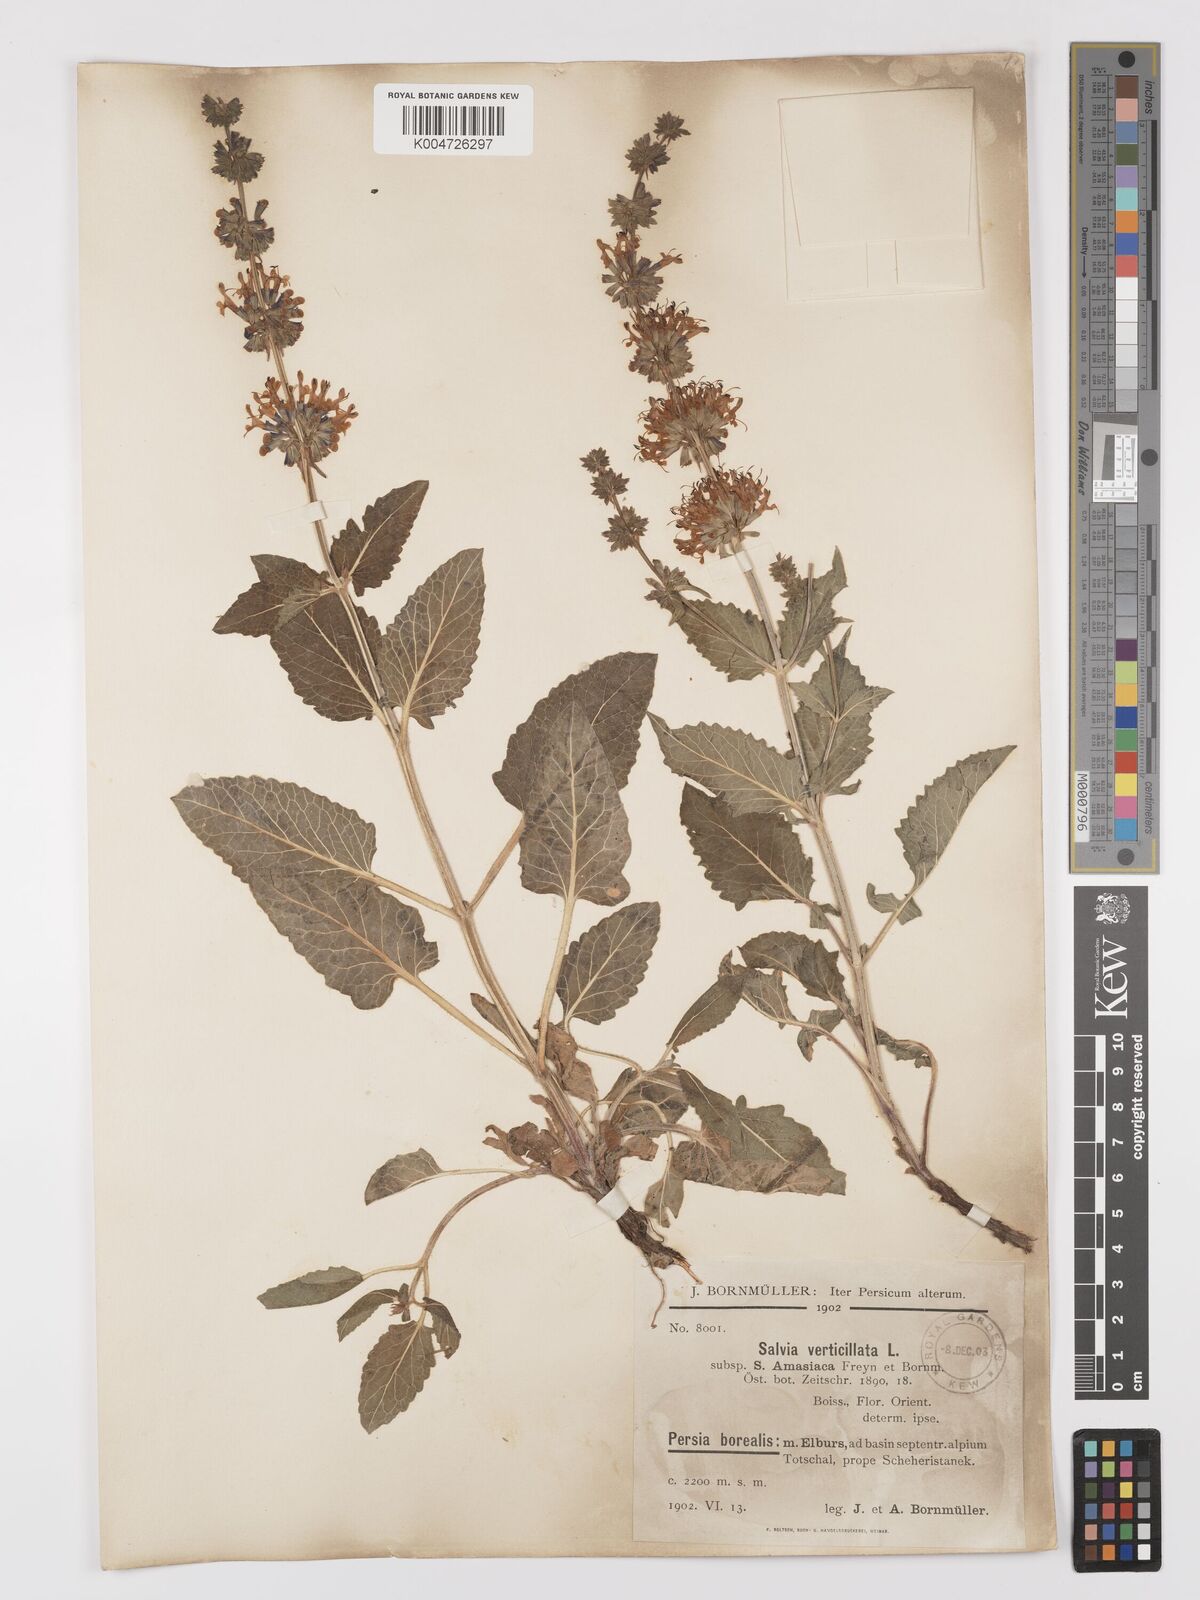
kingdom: Plantae
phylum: Tracheophyta
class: Magnoliopsida
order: Lamiales
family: Lamiaceae
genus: Salvia
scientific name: Salvia verticillata
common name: Whorled clary
